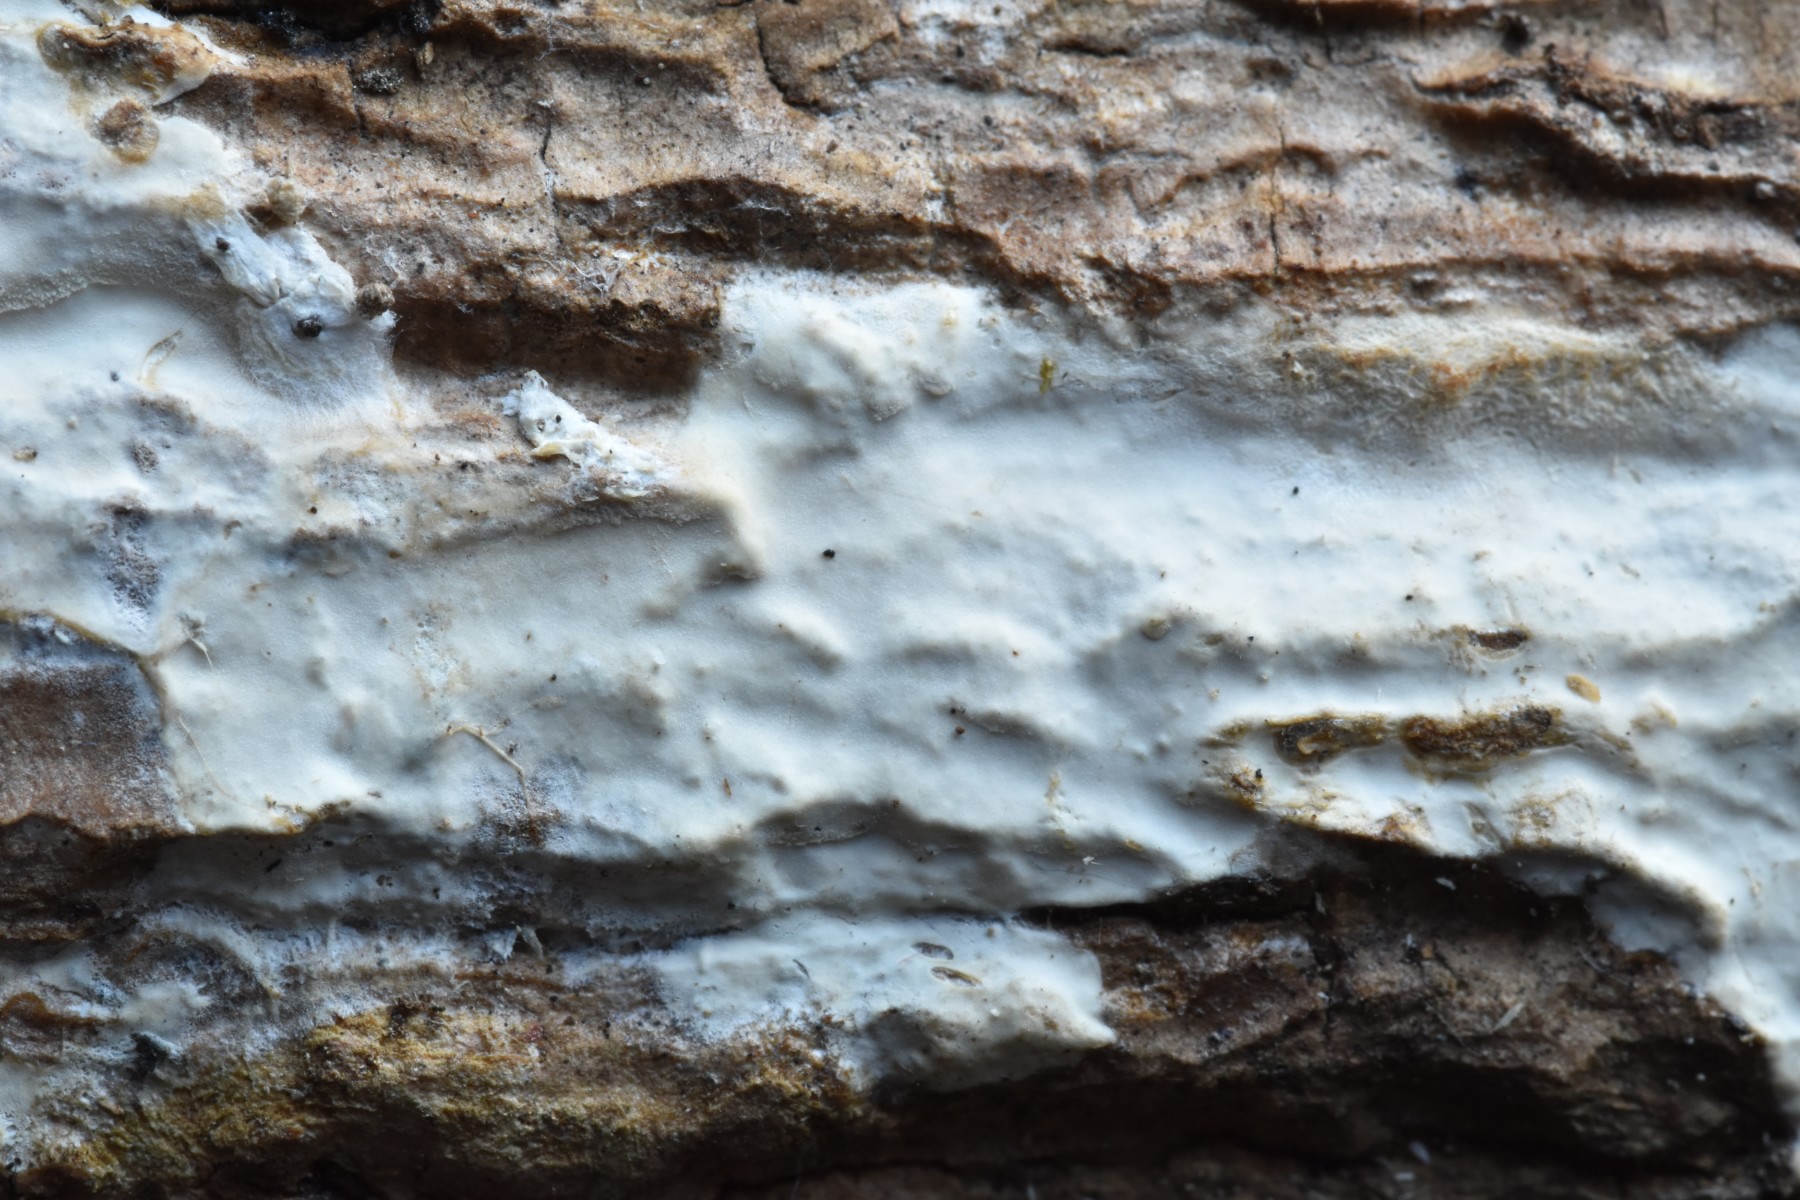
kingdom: Fungi
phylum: Basidiomycota
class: Agaricomycetes
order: Agaricales
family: Radulomycetaceae
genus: Radulomyces
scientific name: Radulomyces confluens
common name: glat naftalinskind
